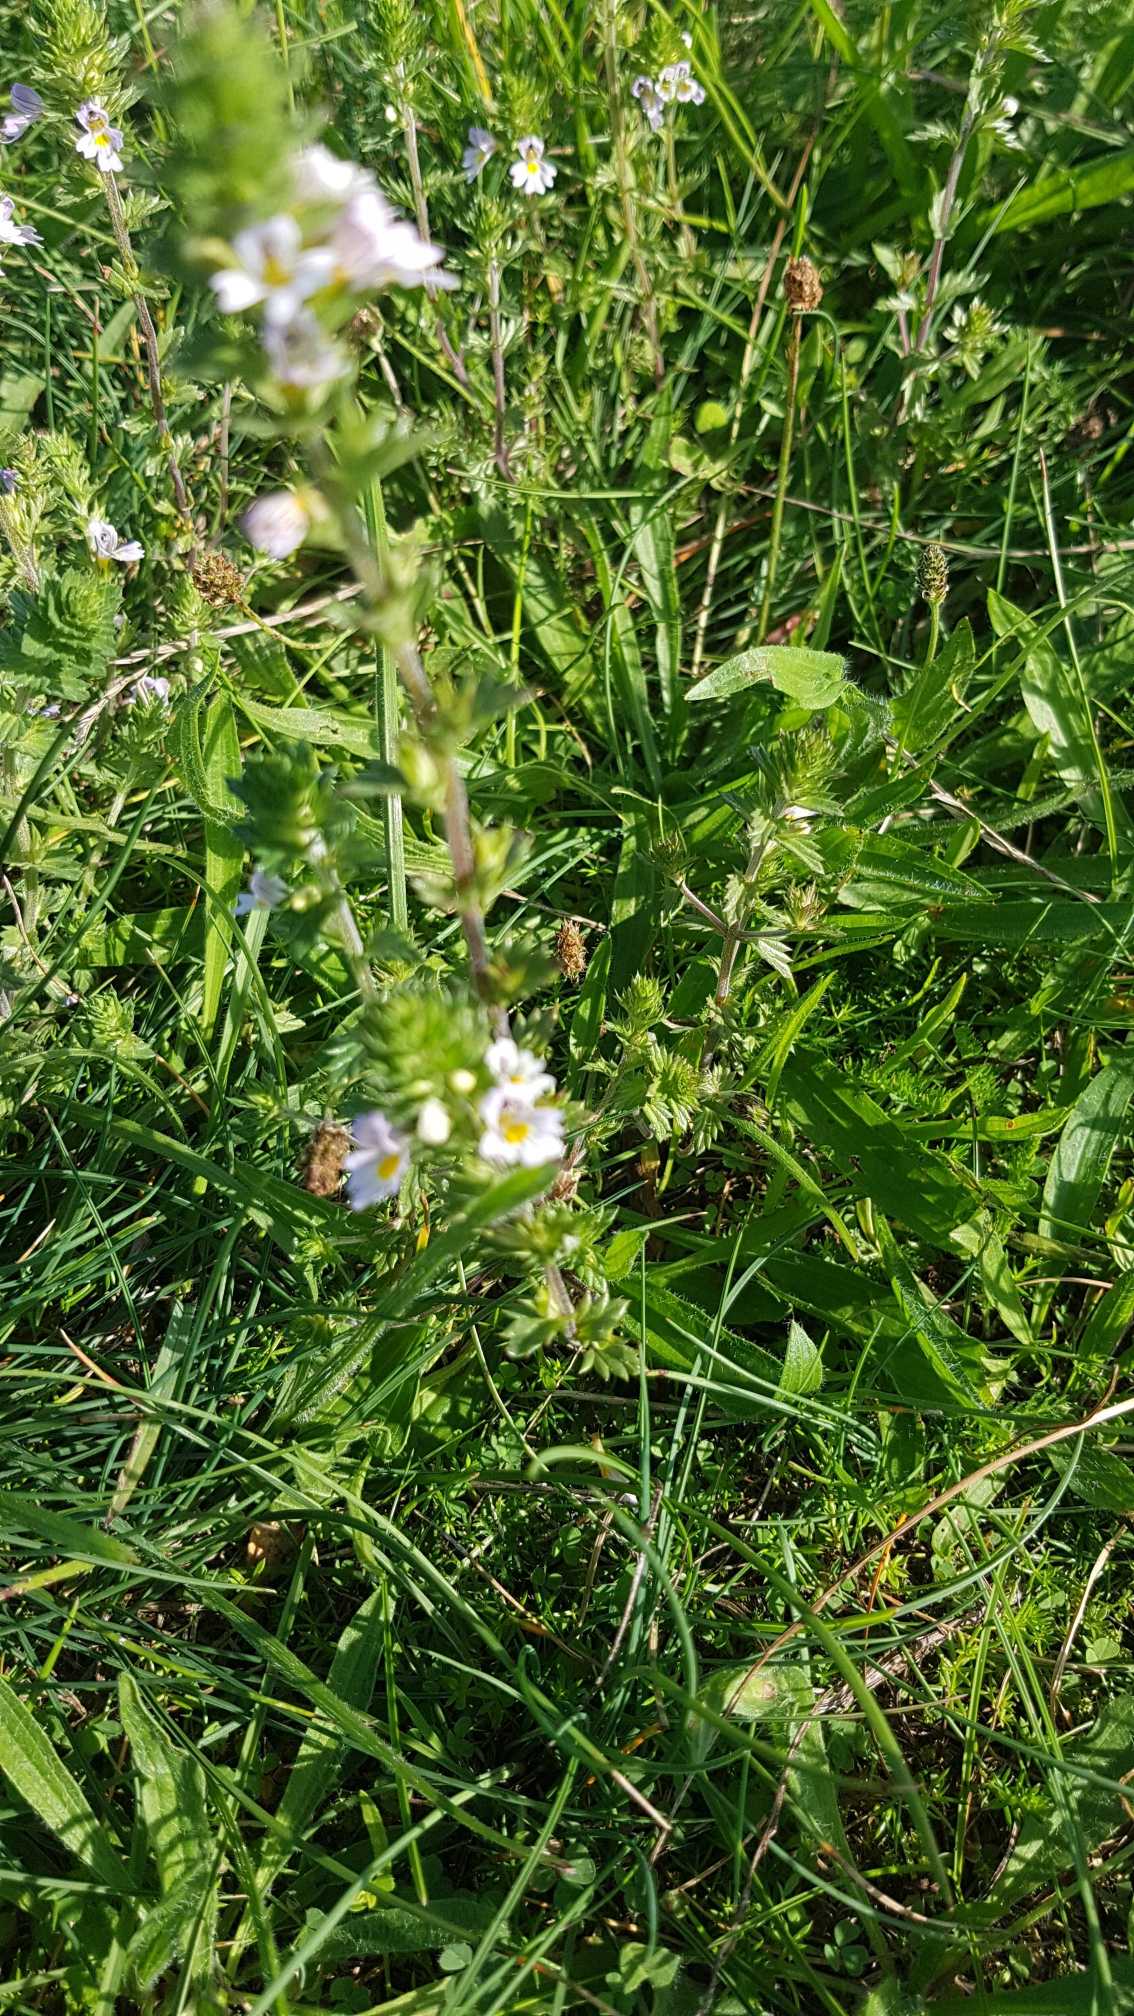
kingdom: Plantae
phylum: Tracheophyta
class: Magnoliopsida
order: Lamiales
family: Orobanchaceae
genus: Euphrasia
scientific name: Euphrasia vernalis
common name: Kirtel-øjentrøst
